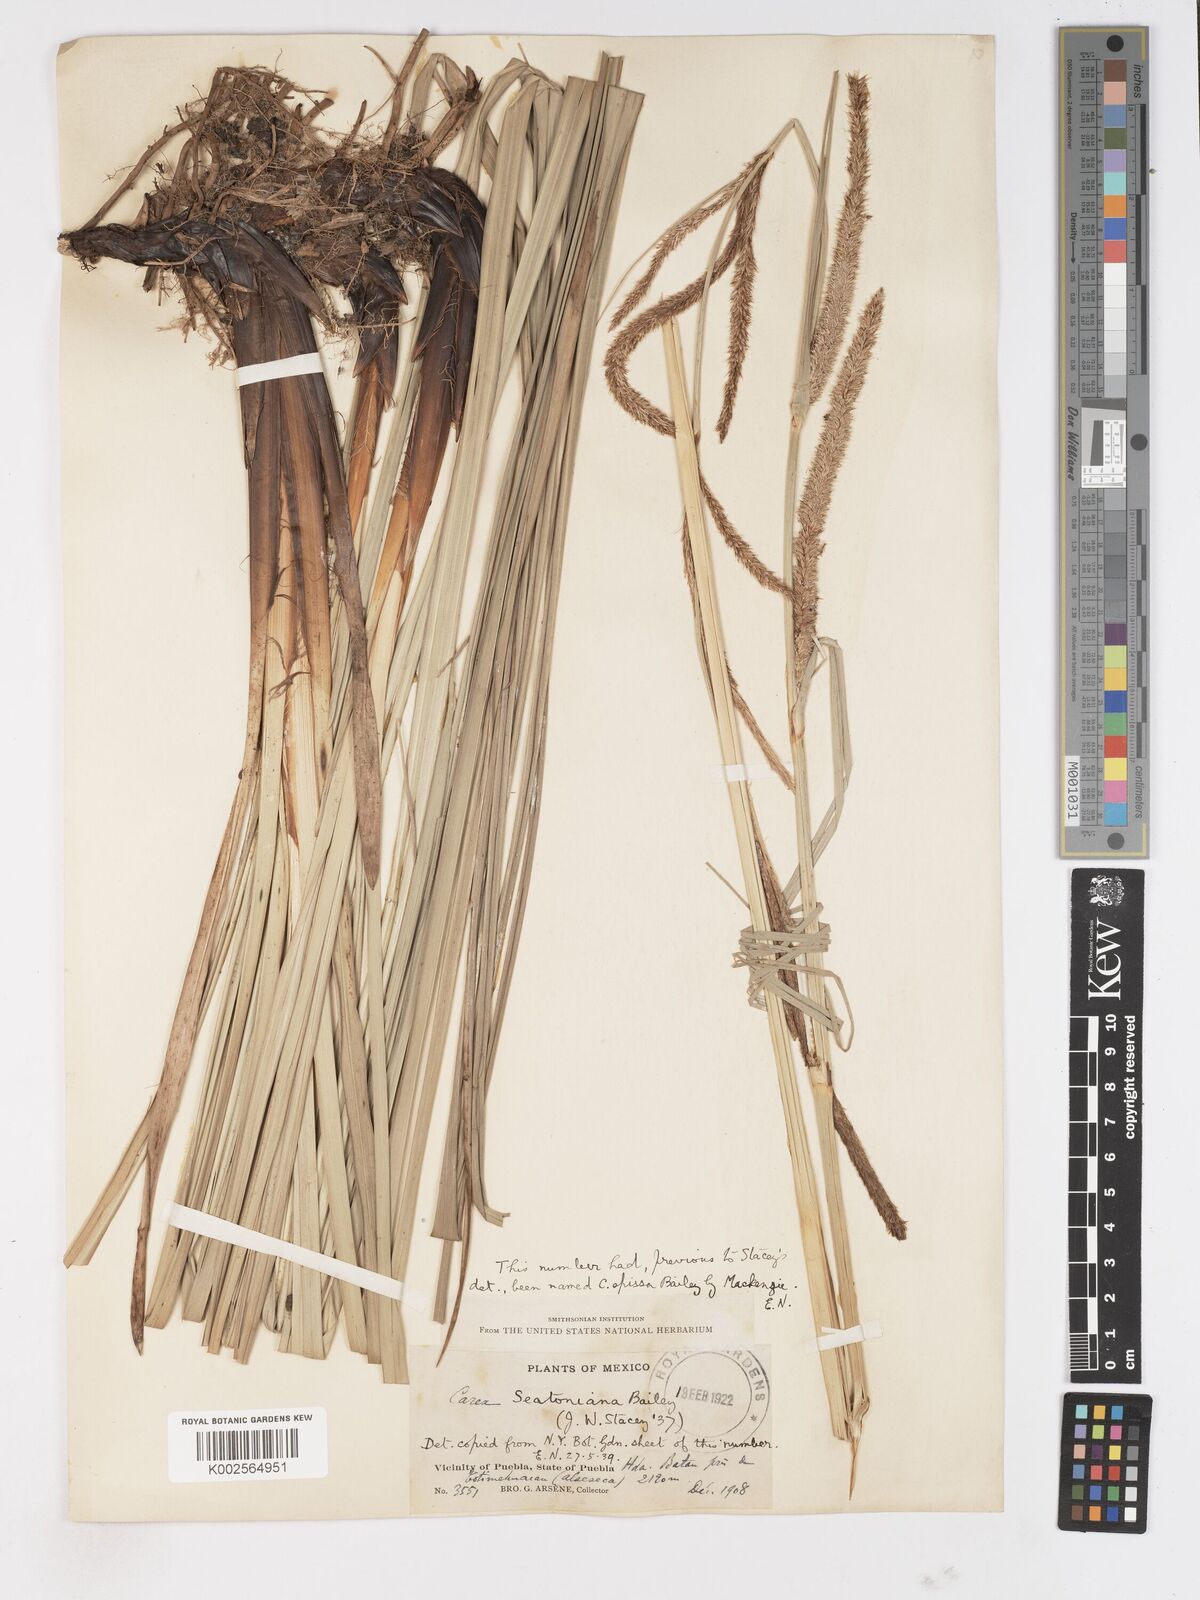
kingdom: Plantae
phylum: Tracheophyta
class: Liliopsida
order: Poales
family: Cyperaceae
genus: Carex
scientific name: Carex spissa
